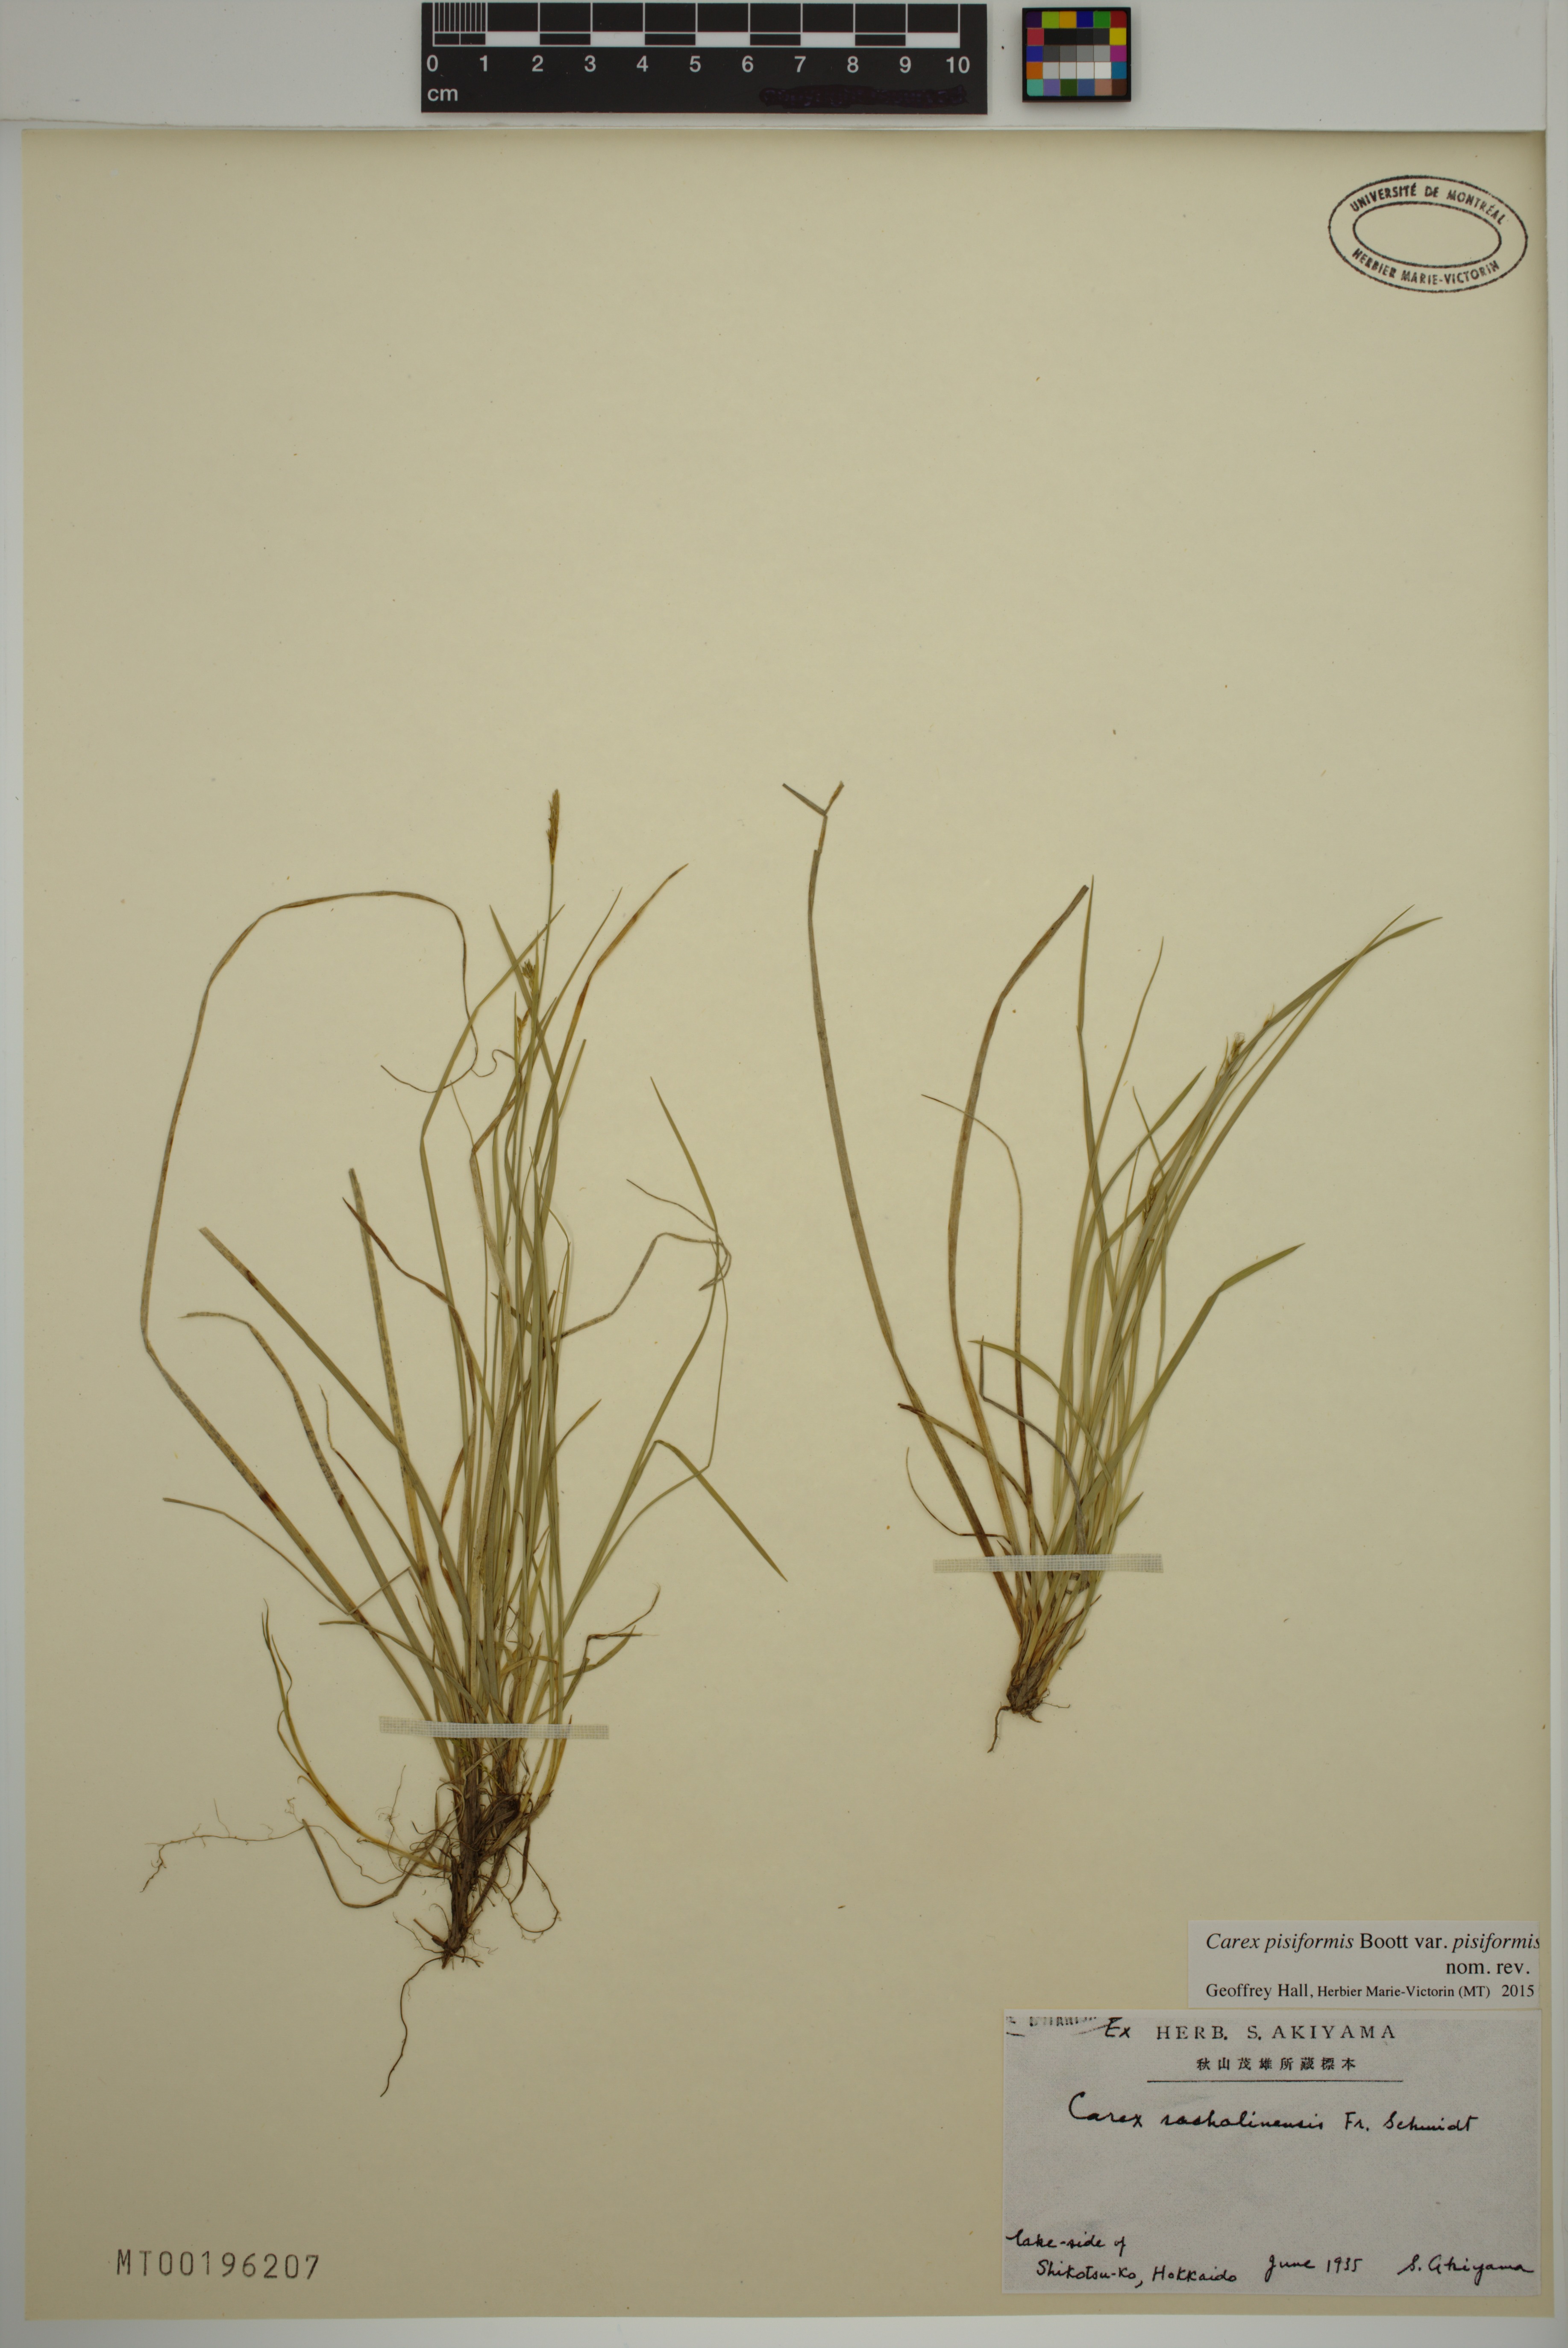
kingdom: Plantae
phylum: Tracheophyta
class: Liliopsida
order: Poales
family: Cyperaceae
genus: Carex
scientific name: Carex pisiformis
